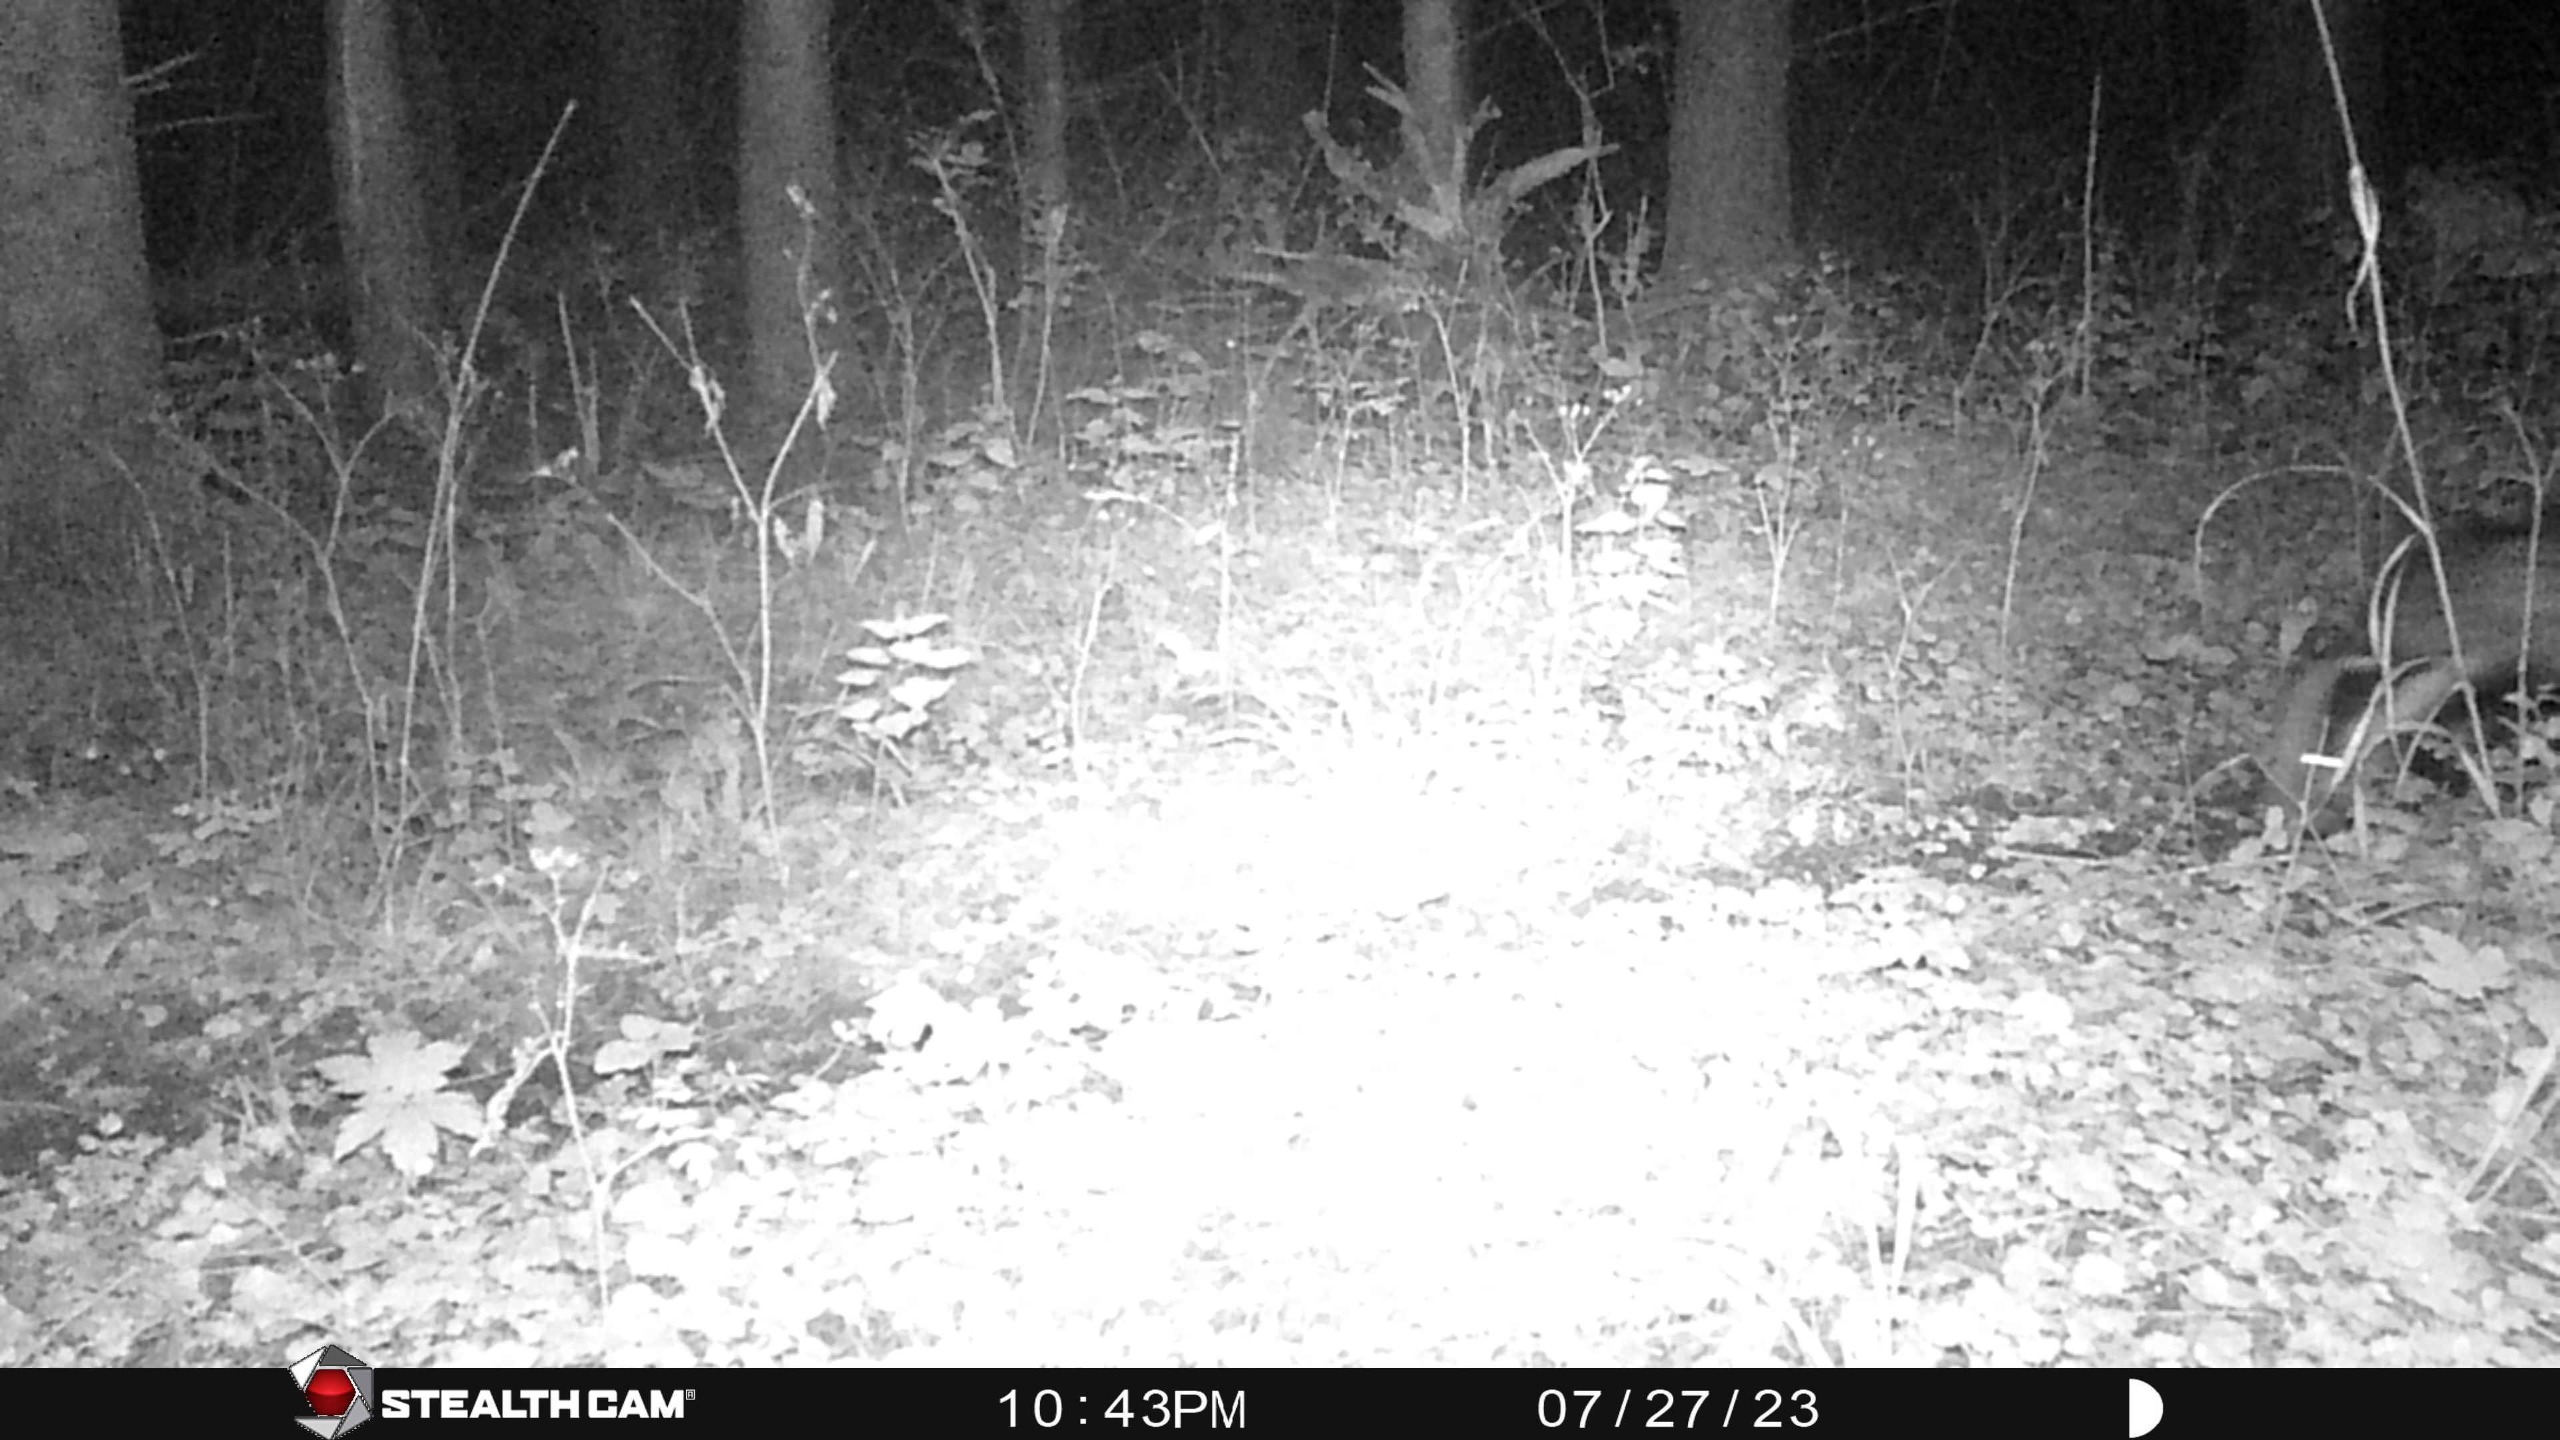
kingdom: Animalia
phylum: Chordata
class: Mammalia
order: Carnivora
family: Mustelidae
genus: Meles
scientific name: Meles meles
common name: Grævling
